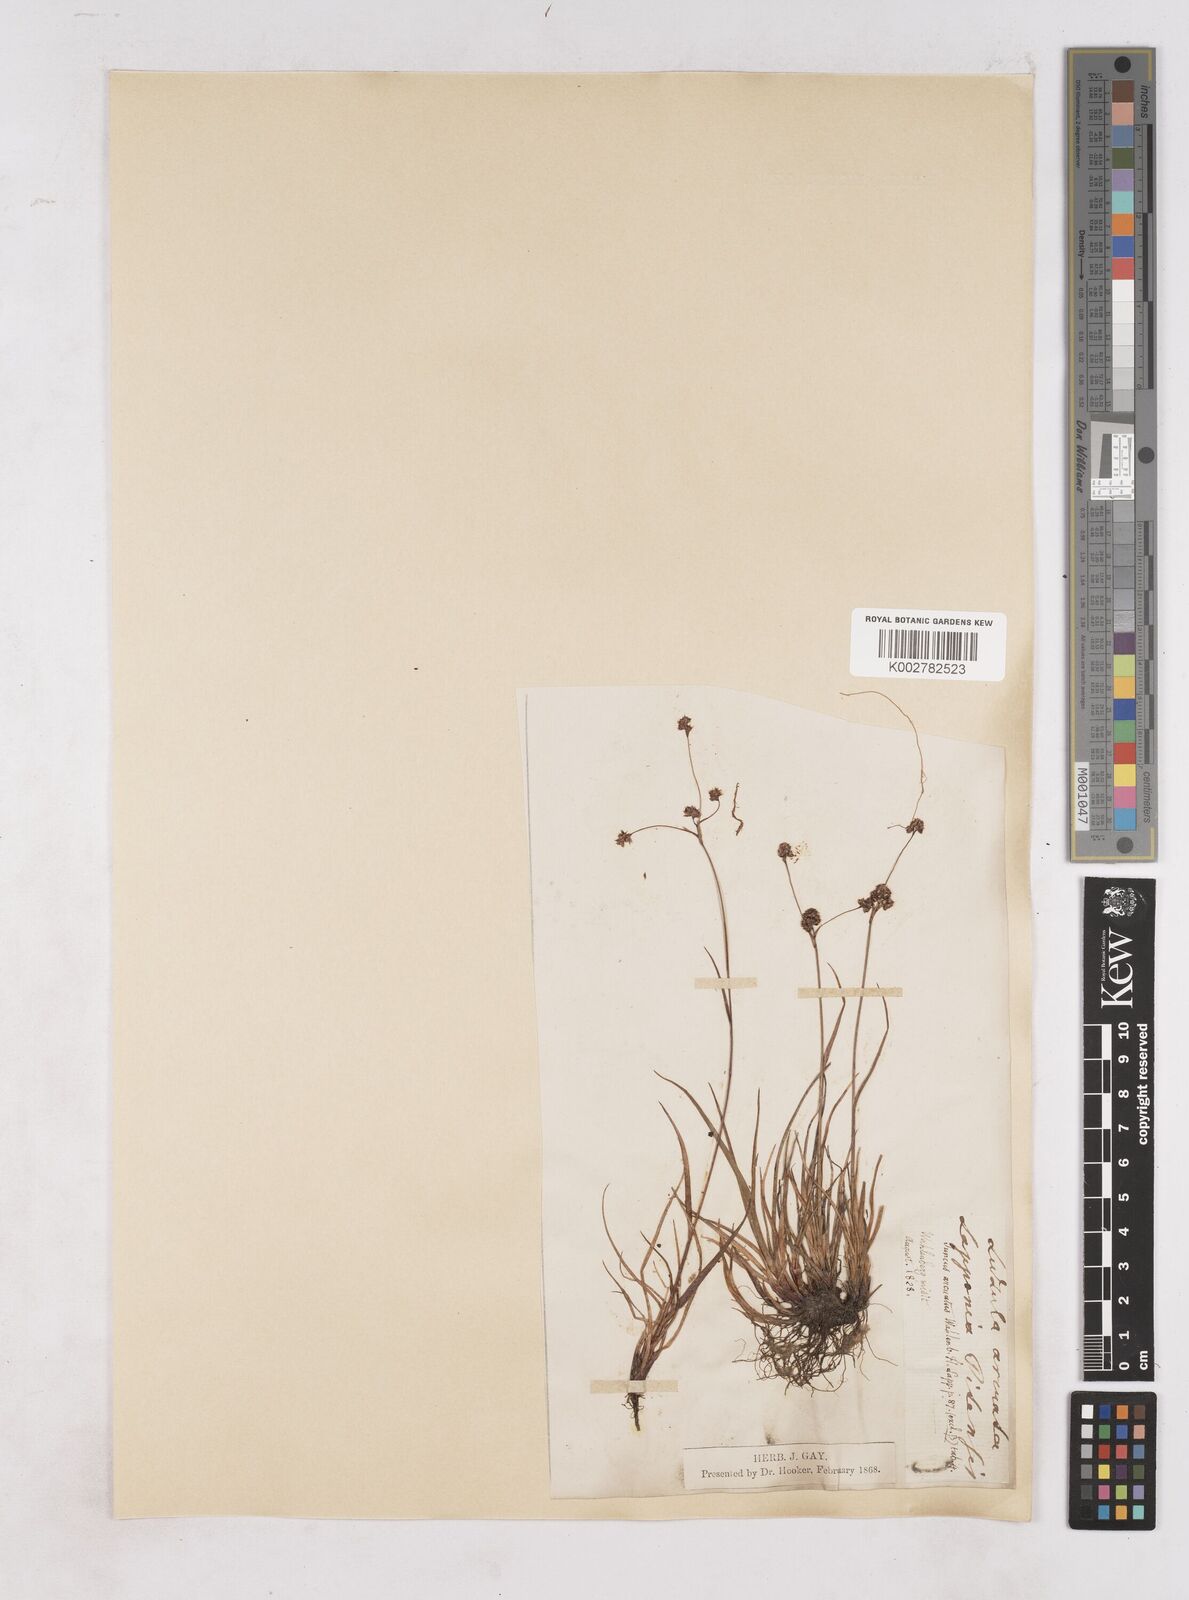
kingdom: Plantae
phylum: Tracheophyta
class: Liliopsida
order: Poales
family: Juncaceae
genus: Luzula
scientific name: Luzula arcuata
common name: Curved wood-rush
